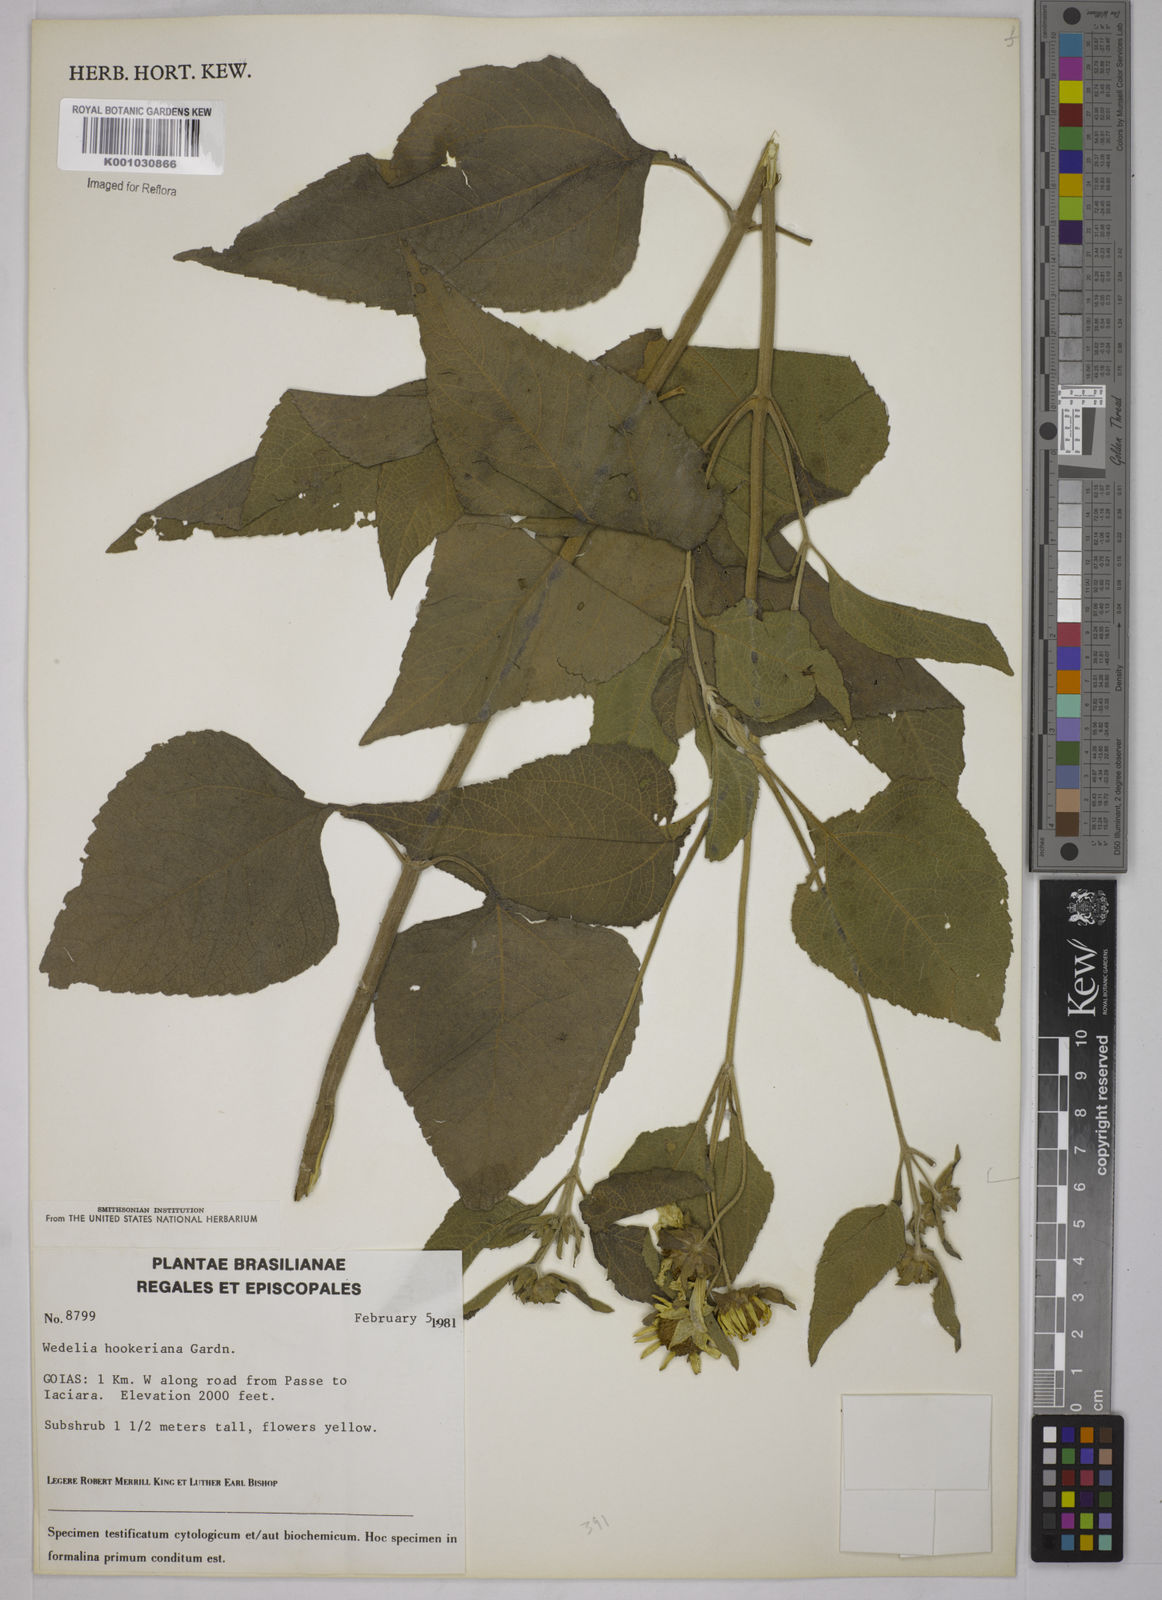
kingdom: Plantae
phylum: Tracheophyta
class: Magnoliopsida
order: Asterales
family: Asteraceae
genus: Wedelia
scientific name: Wedelia hookeriana
